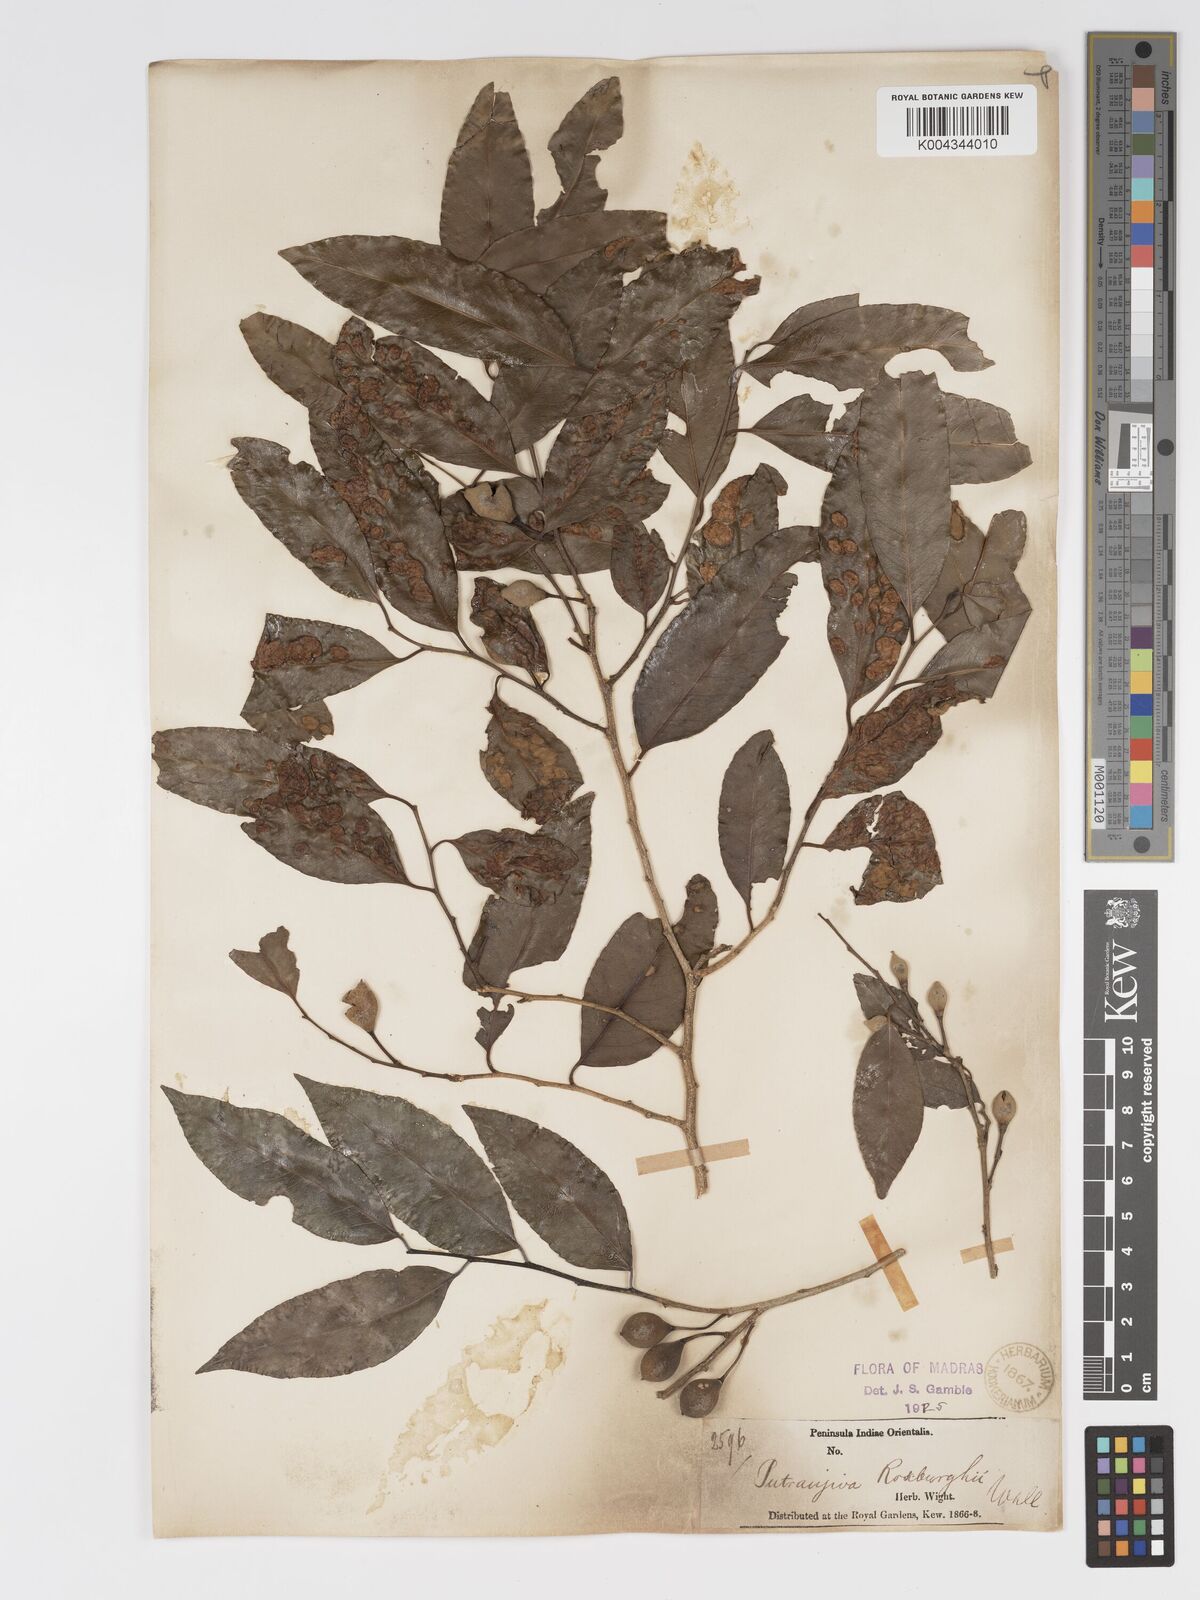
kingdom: Plantae
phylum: Tracheophyta
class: Magnoliopsida
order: Malpighiales
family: Putranjivaceae
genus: Putranjiva
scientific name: Putranjiva roxburghii
